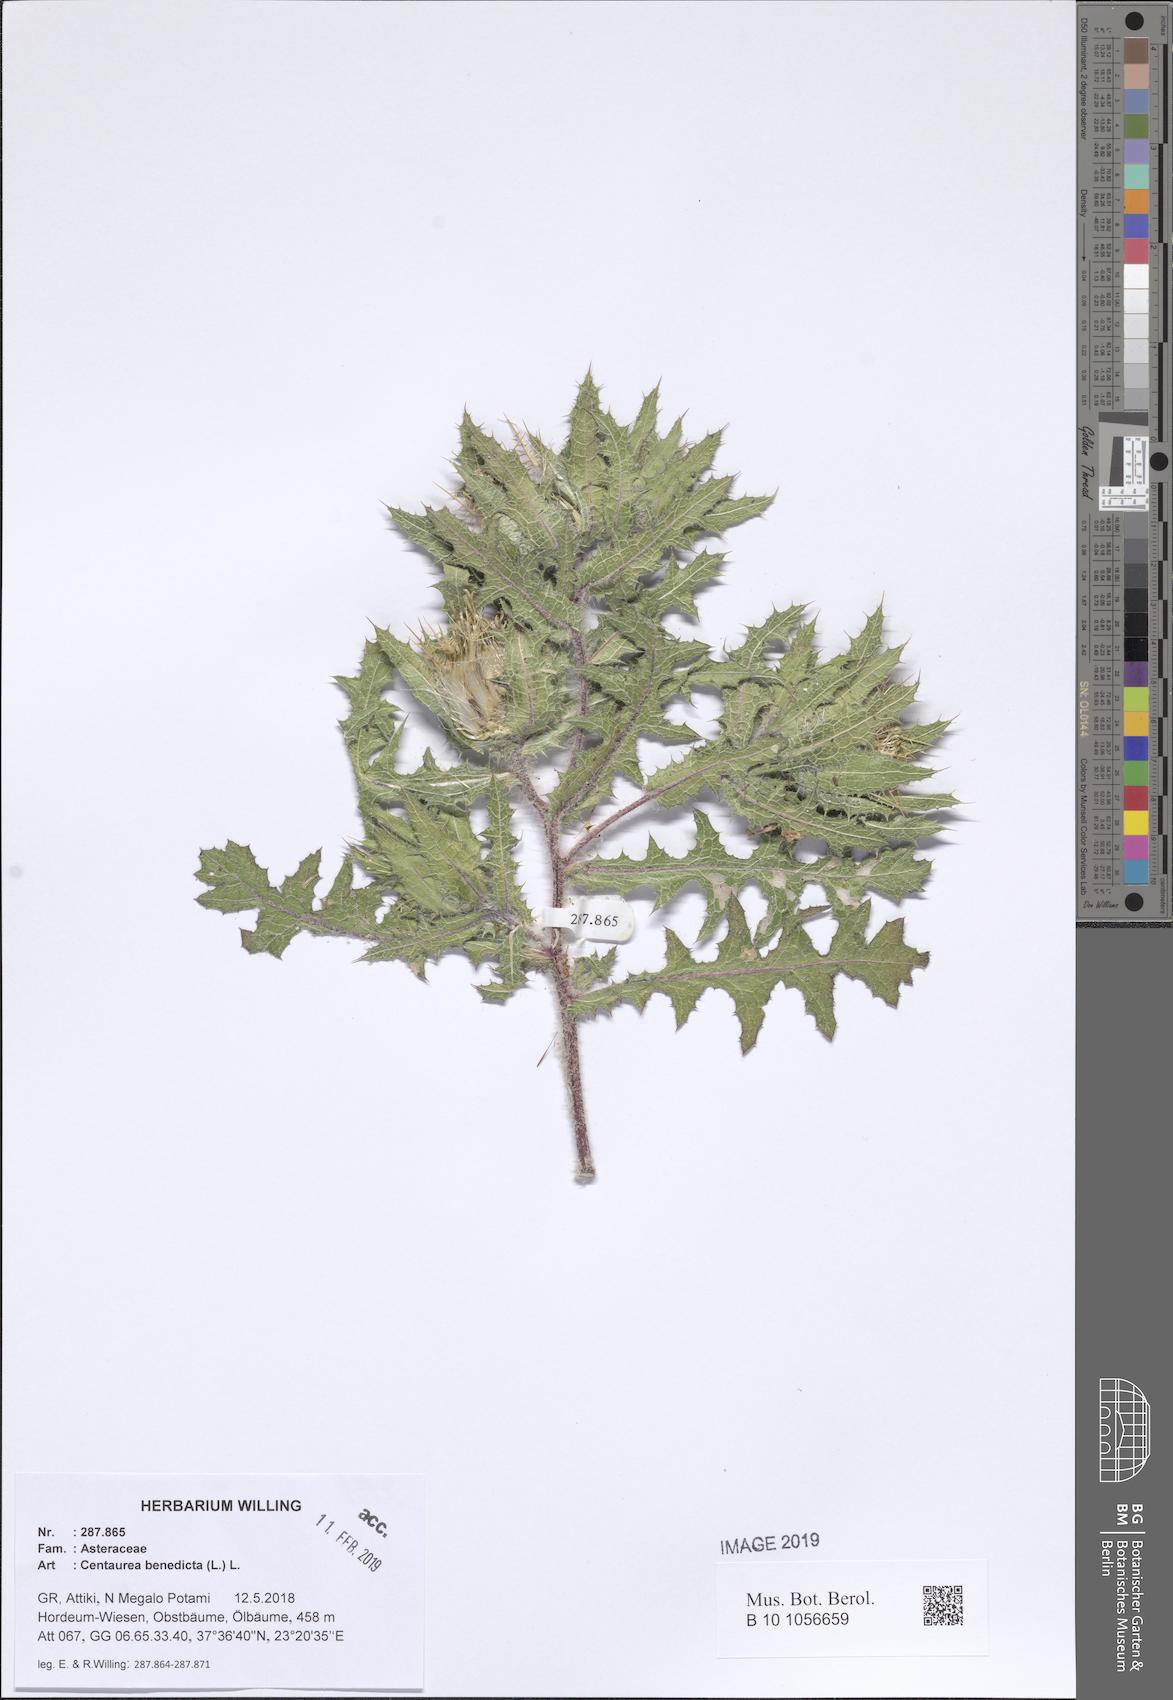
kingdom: Plantae
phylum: Tracheophyta
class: Magnoliopsida
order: Asterales
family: Asteraceae
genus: Centaurea
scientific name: Centaurea benedicta
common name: Blessed thistle
